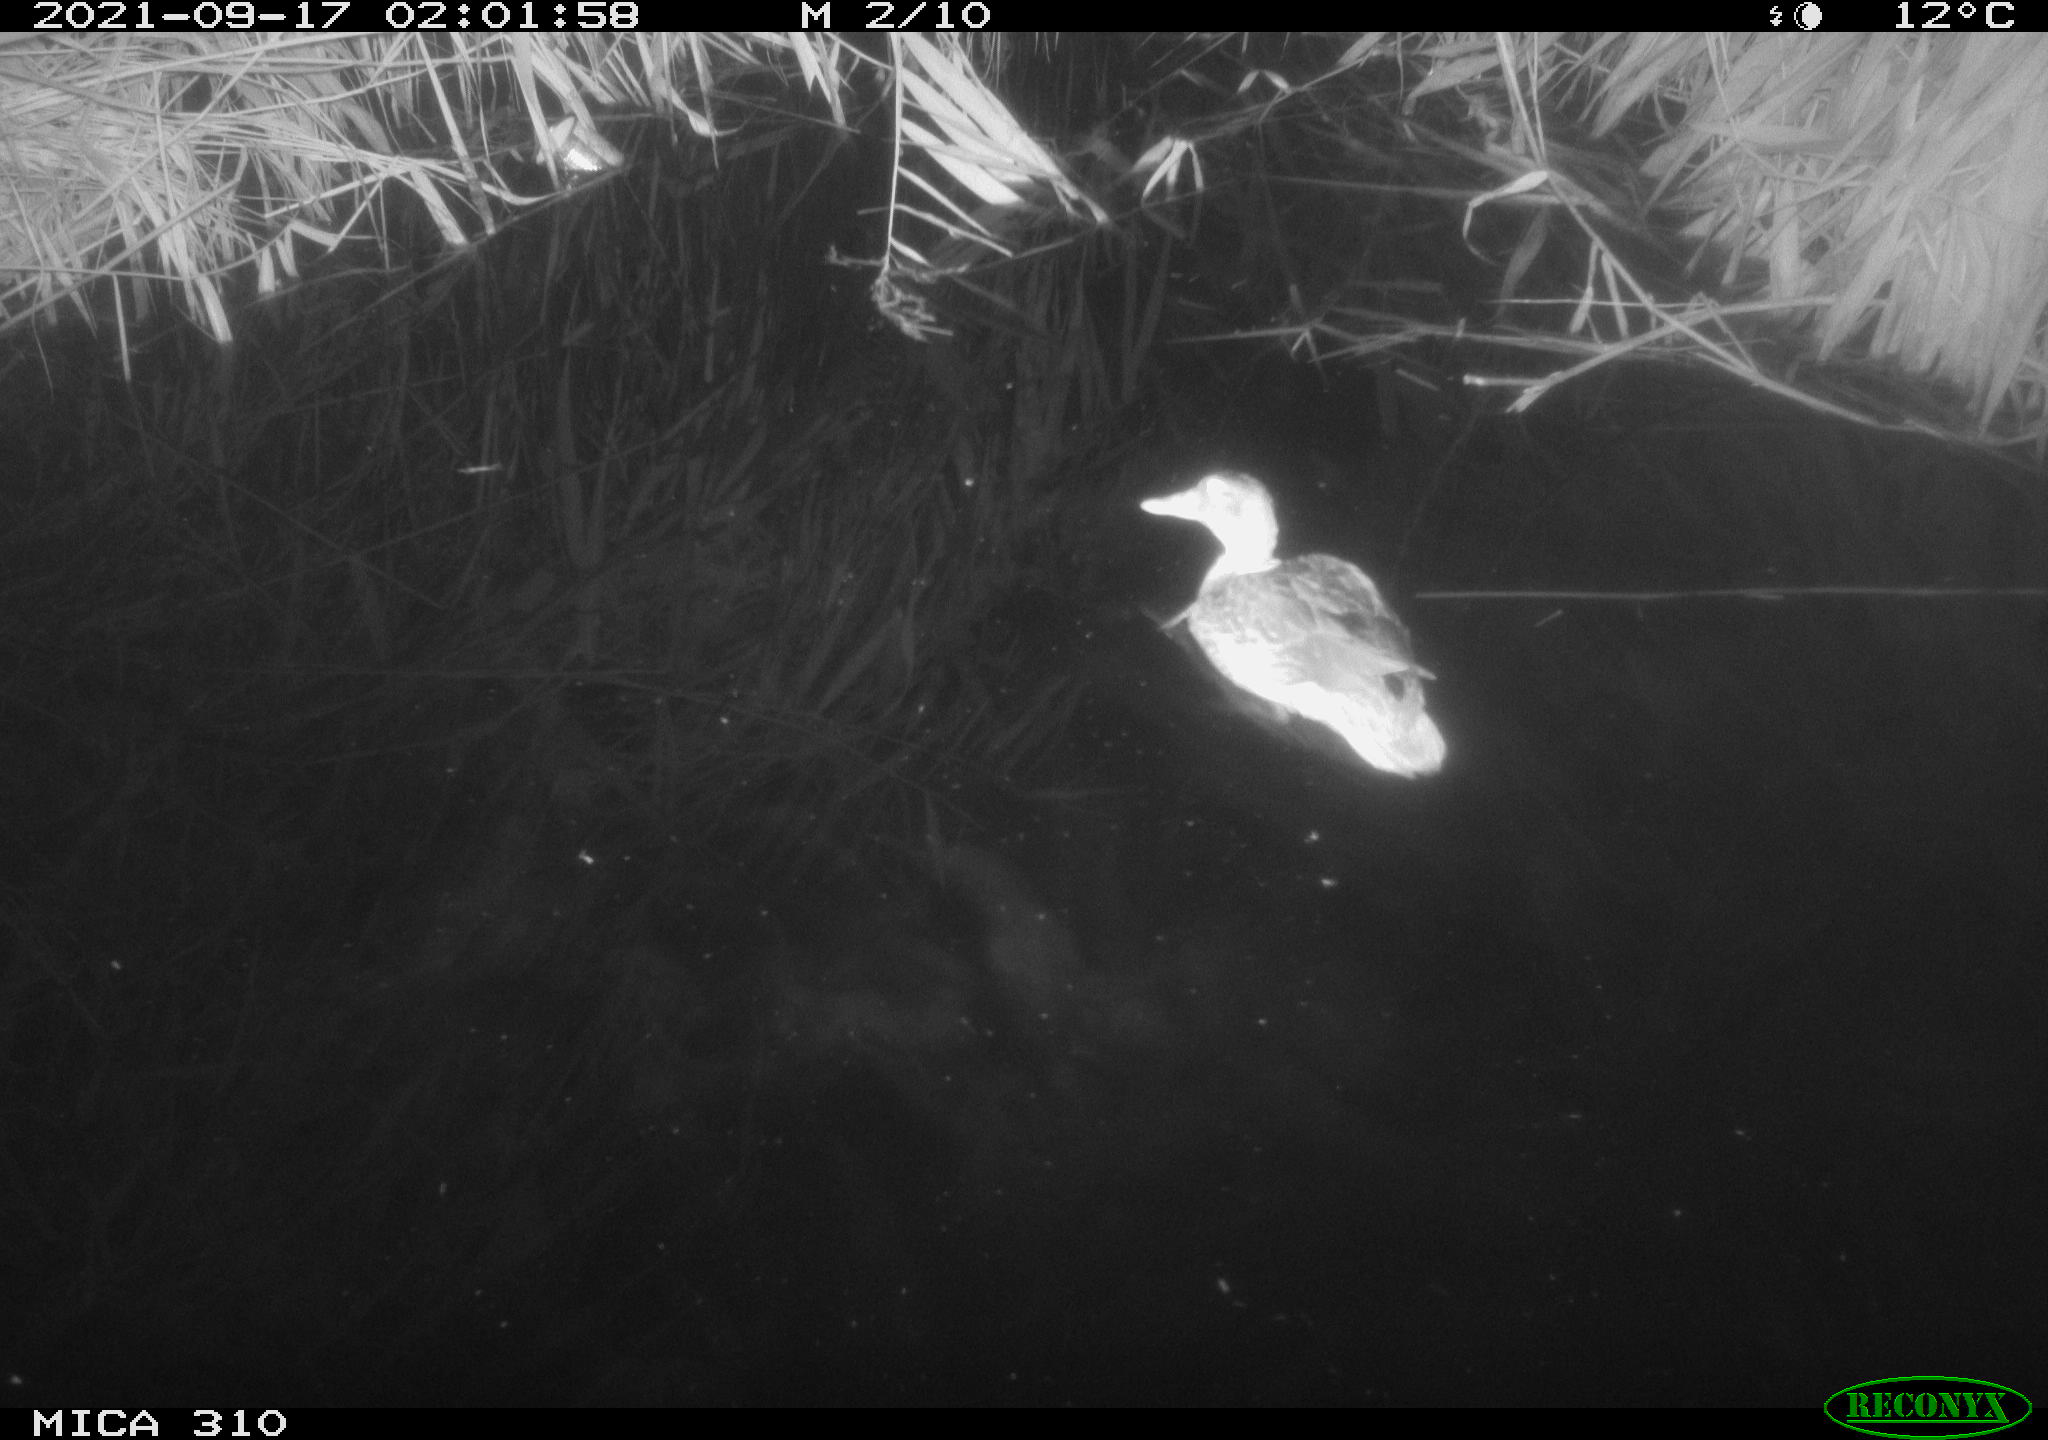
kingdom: Animalia
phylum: Chordata
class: Aves
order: Anseriformes
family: Anatidae
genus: Anas
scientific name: Anas platyrhynchos
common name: Mallard
